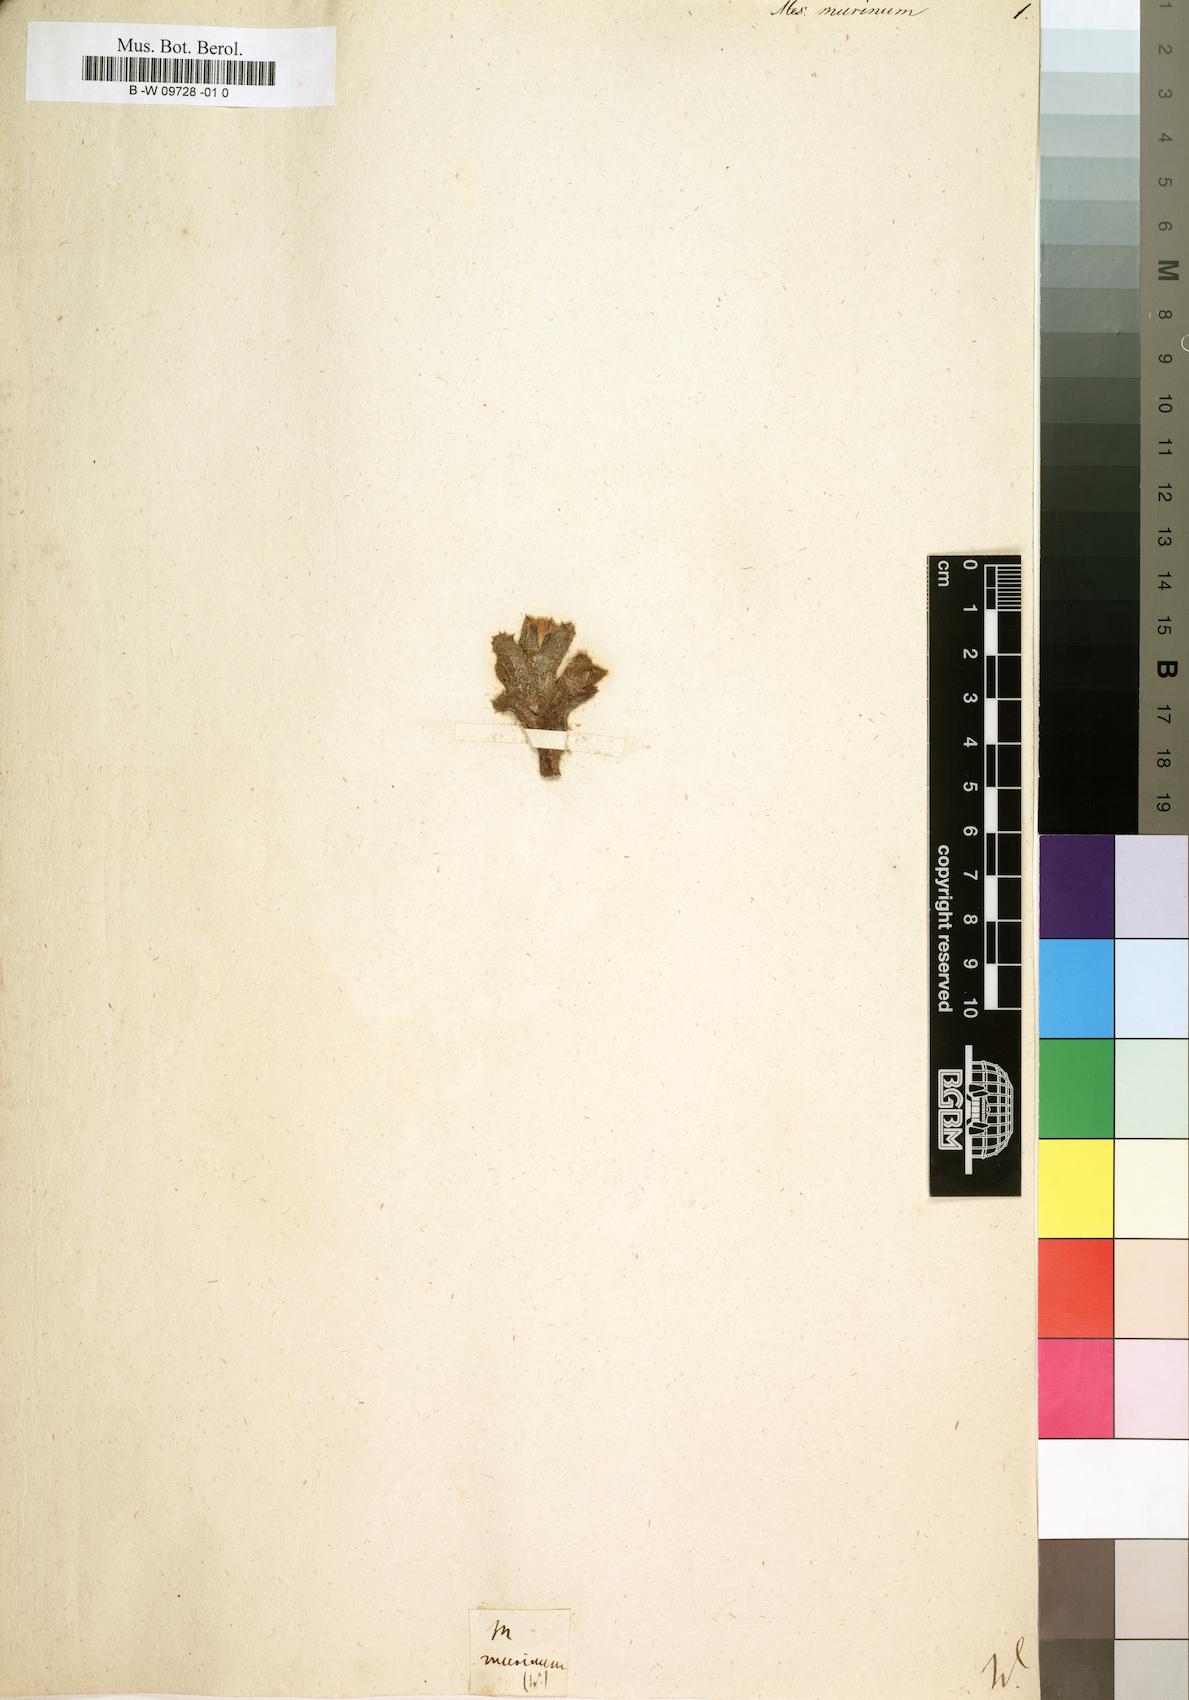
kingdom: Plantae
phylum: Tracheophyta
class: Magnoliopsida
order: Caryophyllales
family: Aizoaceae
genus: Stomatium
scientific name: Stomatium murinum
